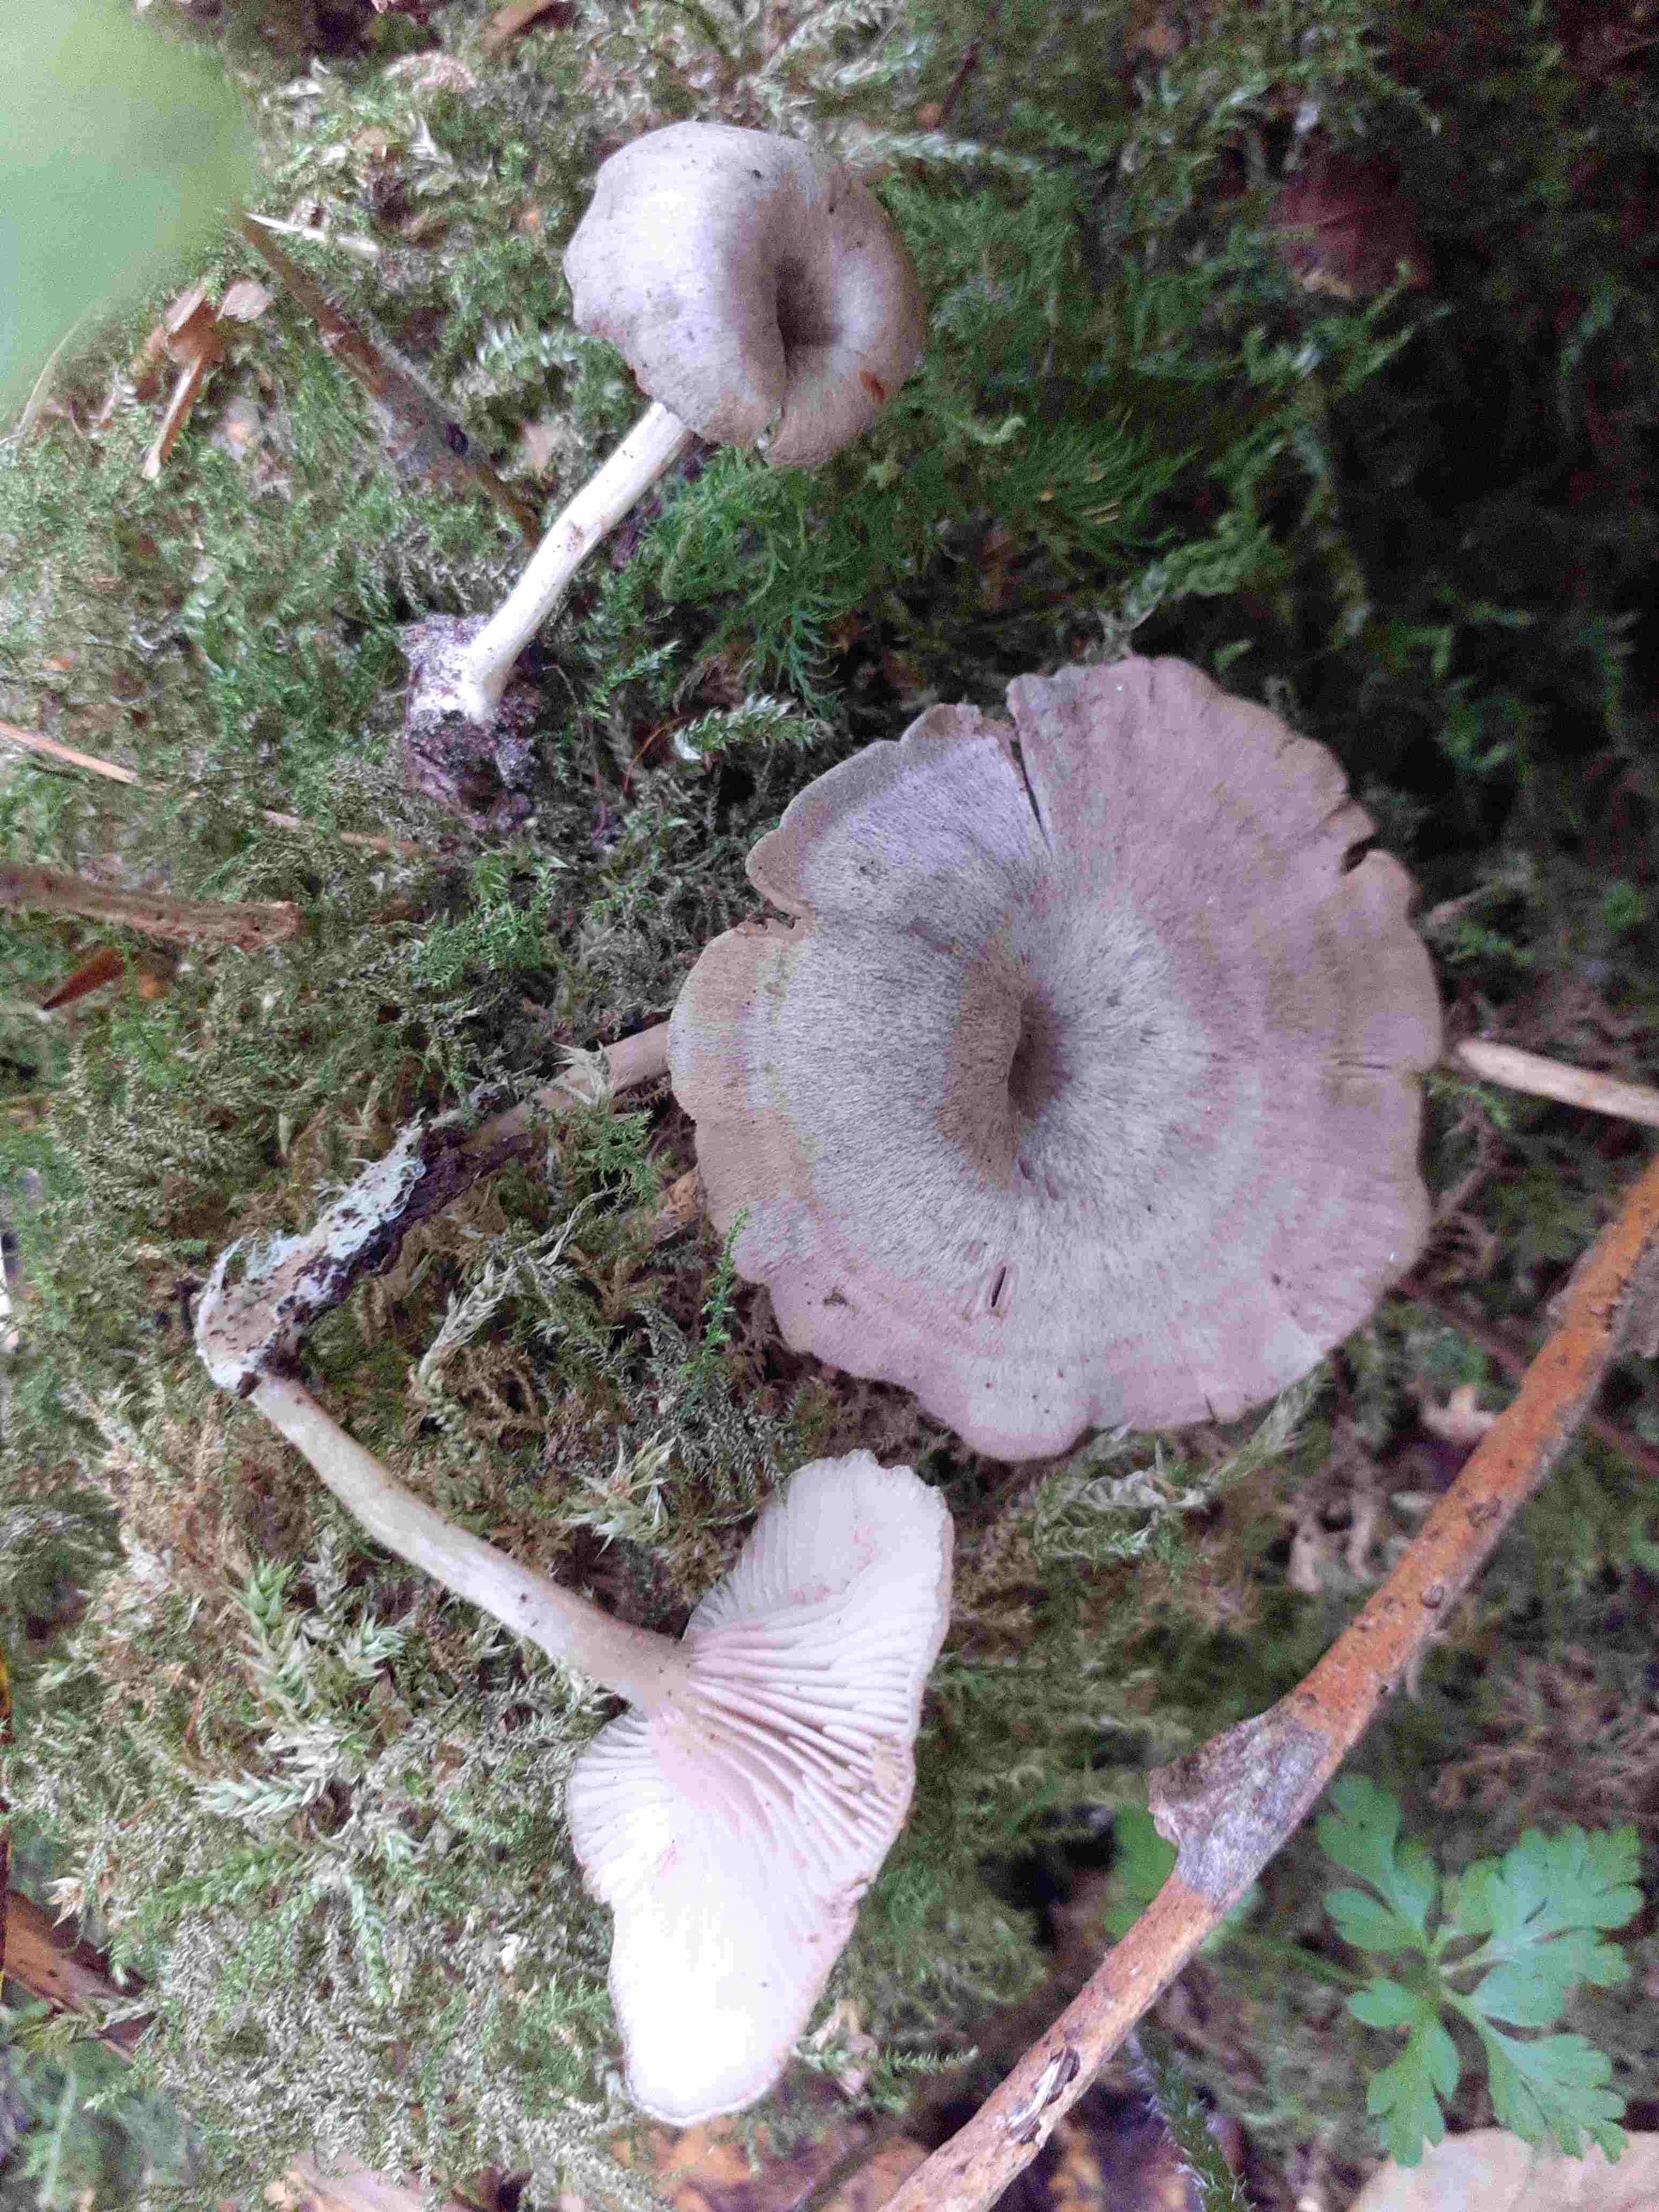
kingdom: Fungi
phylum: Basidiomycota
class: Agaricomycetes
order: Agaricales
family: Entolomataceae
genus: Entoloma
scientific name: Entoloma undatum
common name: bæltet rødblad
